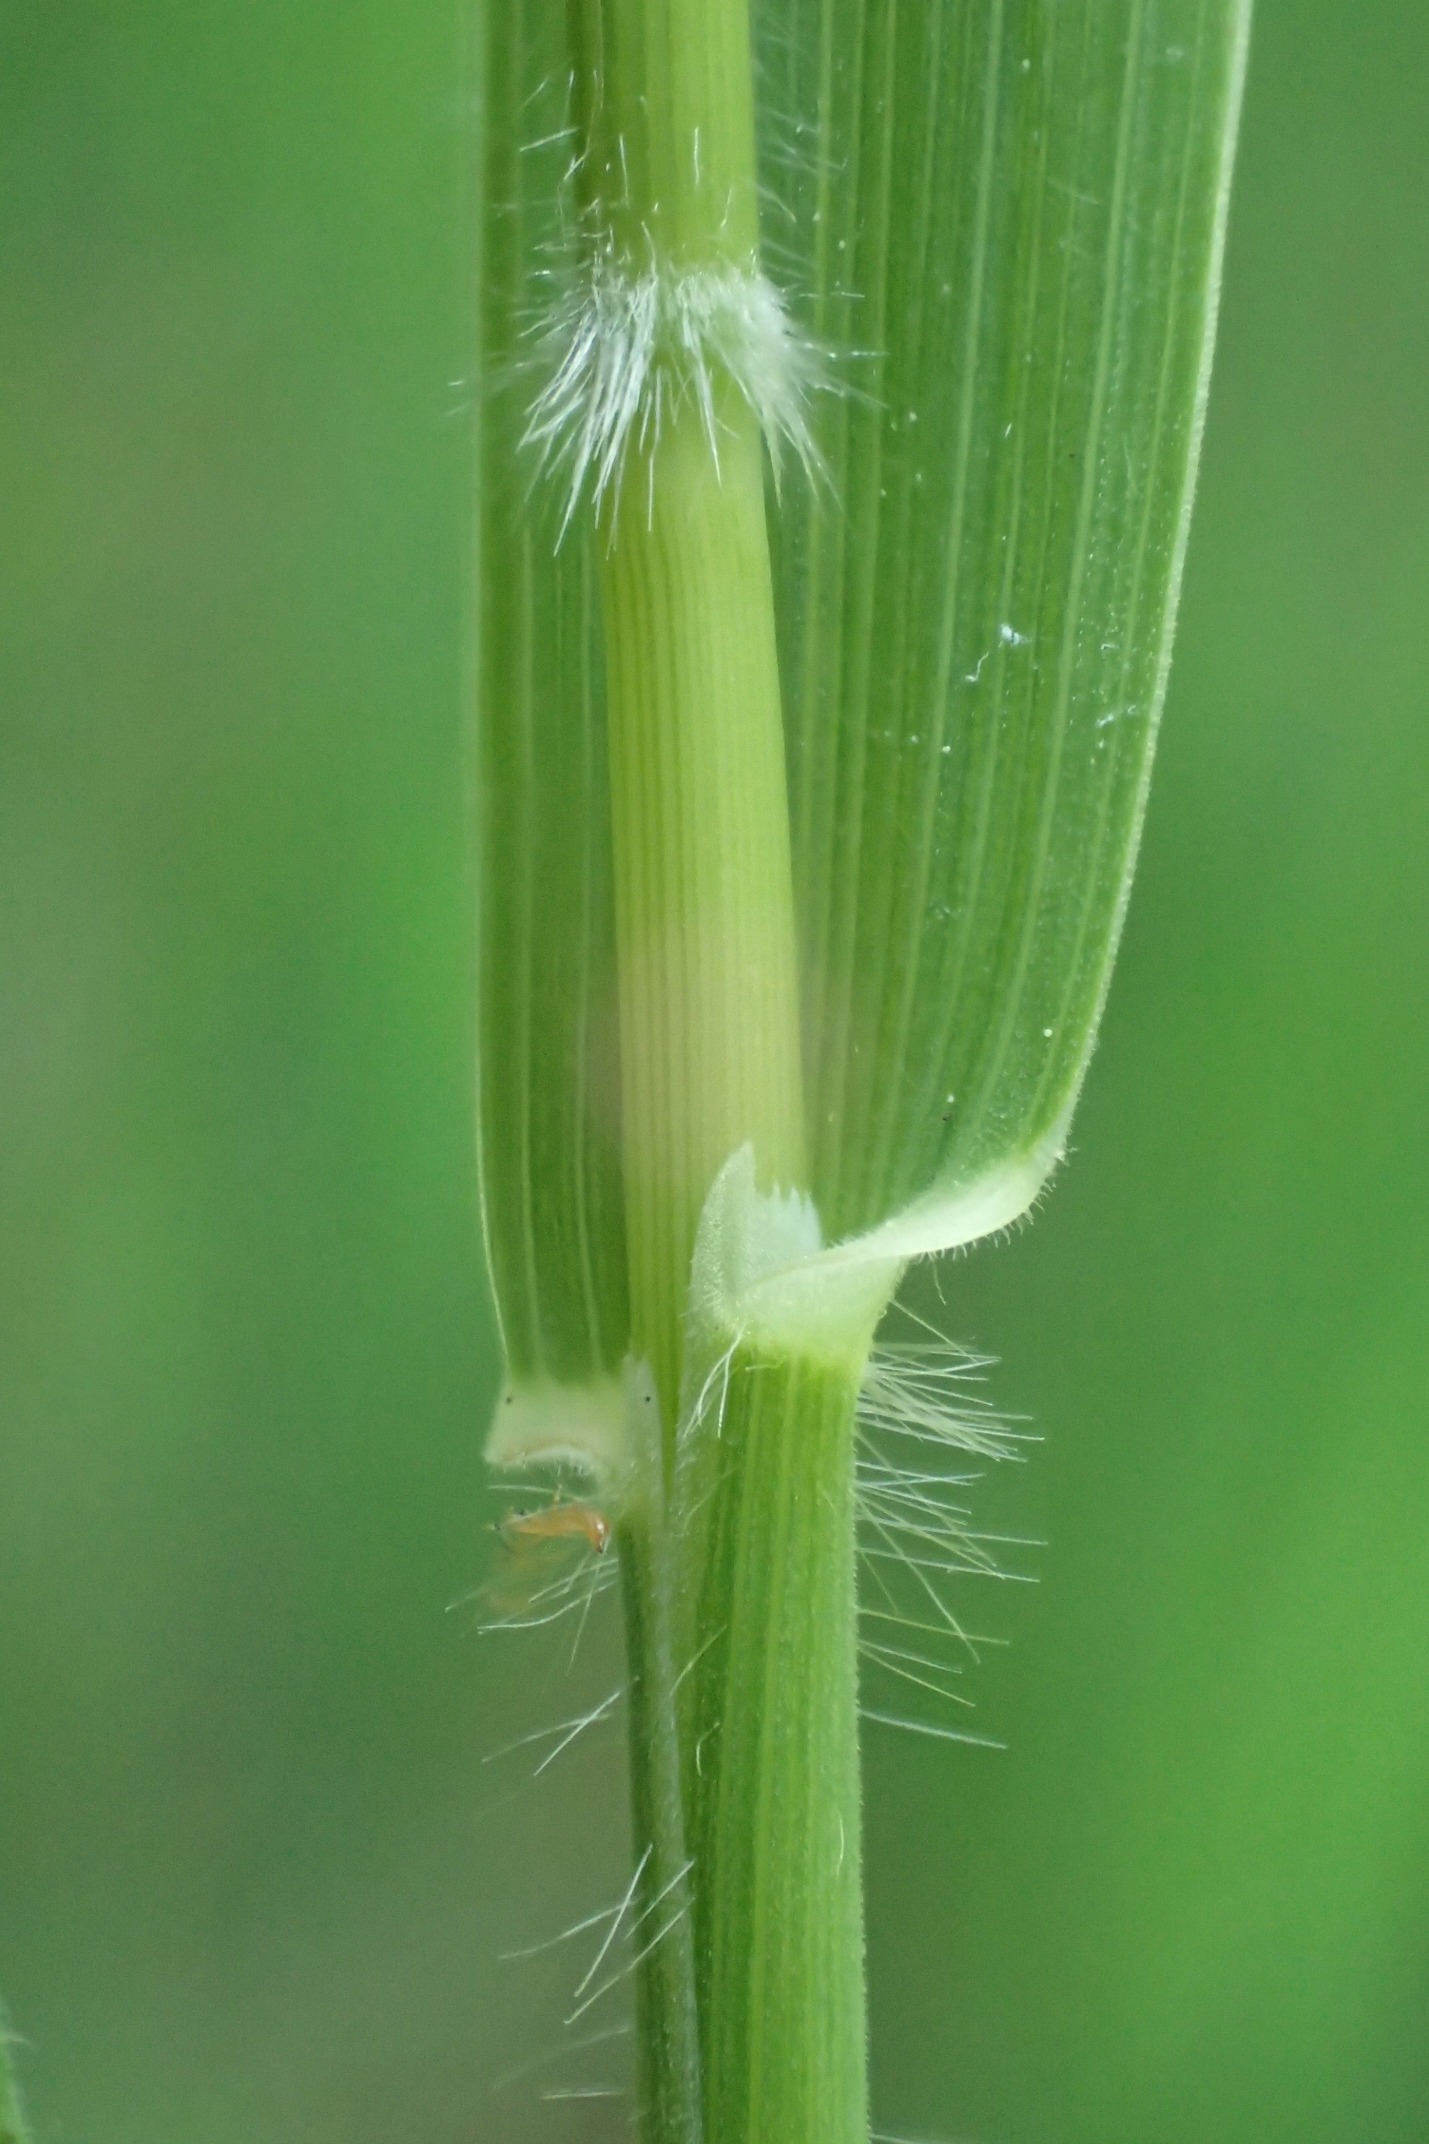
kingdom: Plantae
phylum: Tracheophyta
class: Liliopsida
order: Poales
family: Poaceae
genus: Holcus
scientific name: Holcus mollis
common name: Krybende hestegræs
